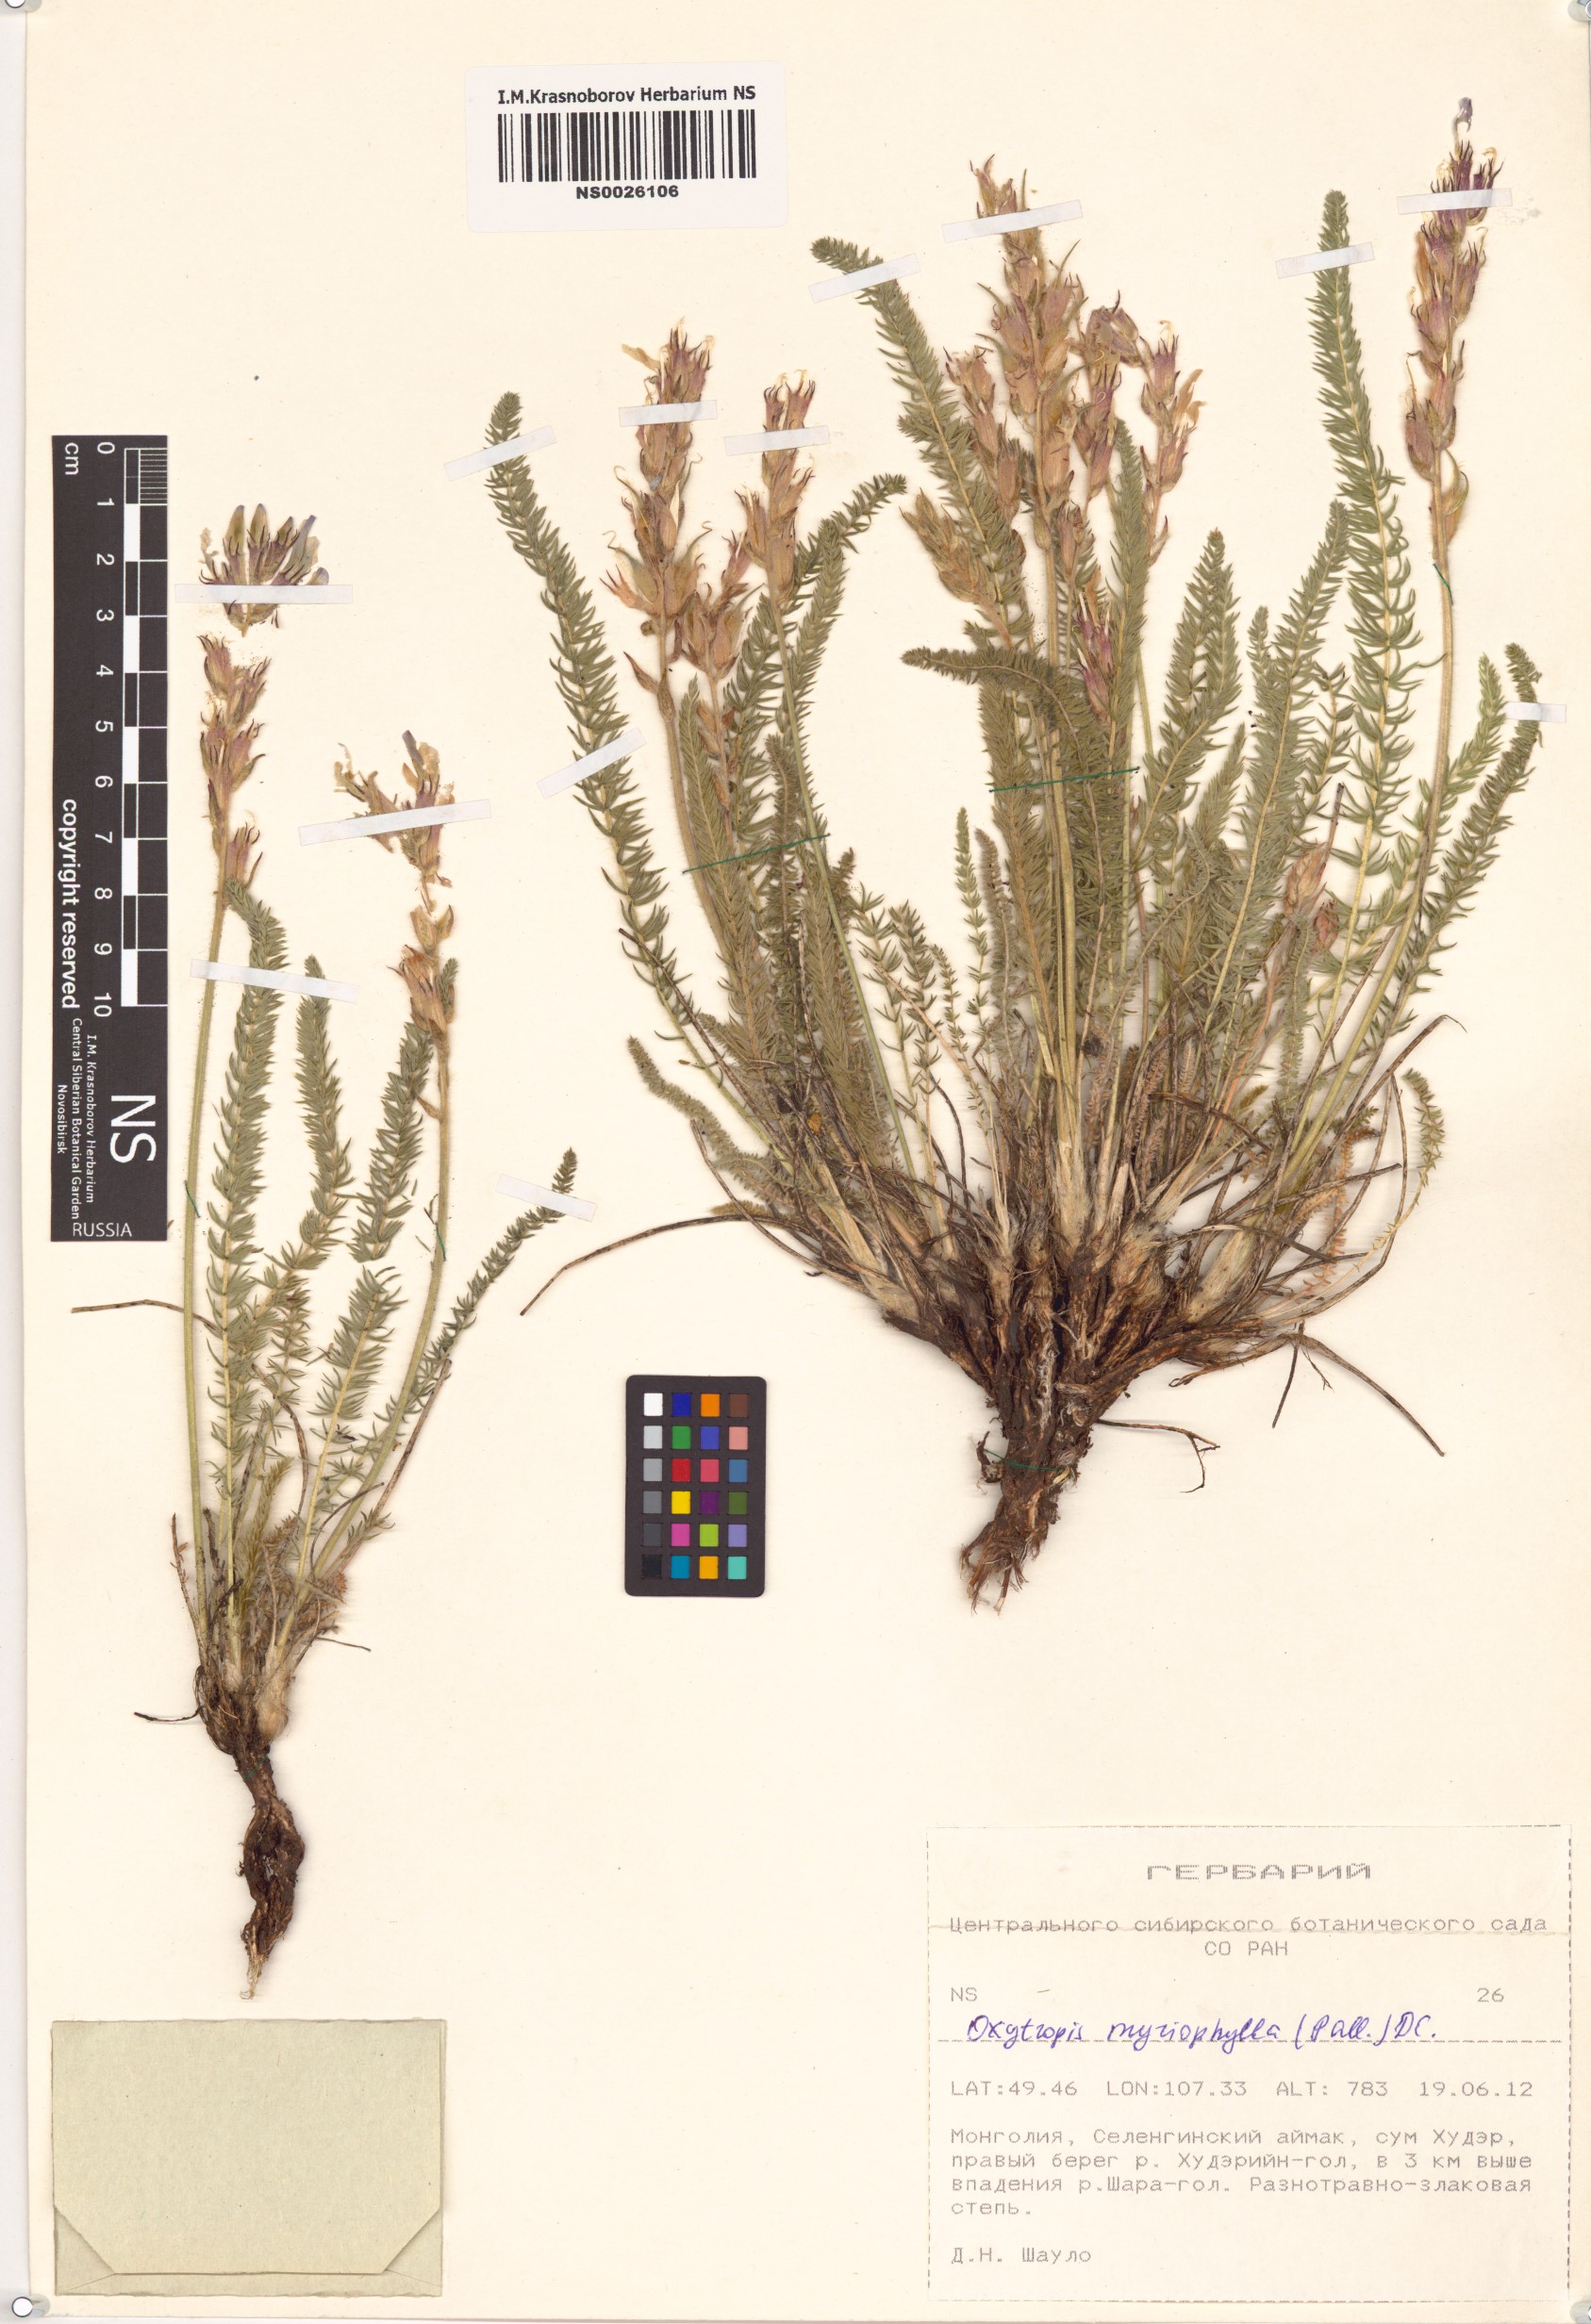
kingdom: Plantae
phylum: Tracheophyta
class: Magnoliopsida
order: Fabales
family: Fabaceae
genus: Oxytropis
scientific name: Oxytropis myriophylla
